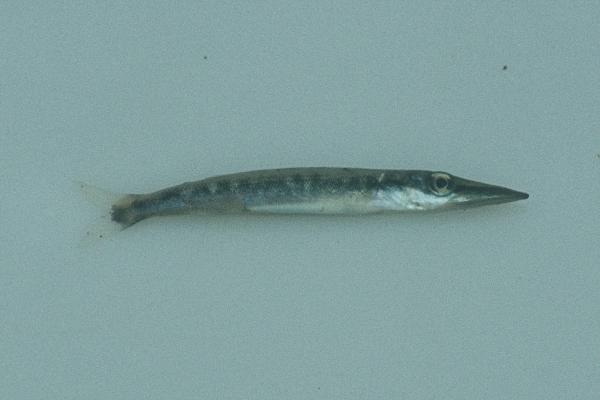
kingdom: Animalia
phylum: Chordata
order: Perciformes
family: Sphyraenidae
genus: Sphyraena
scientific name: Sphyraena barracuda
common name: Great barracuda
